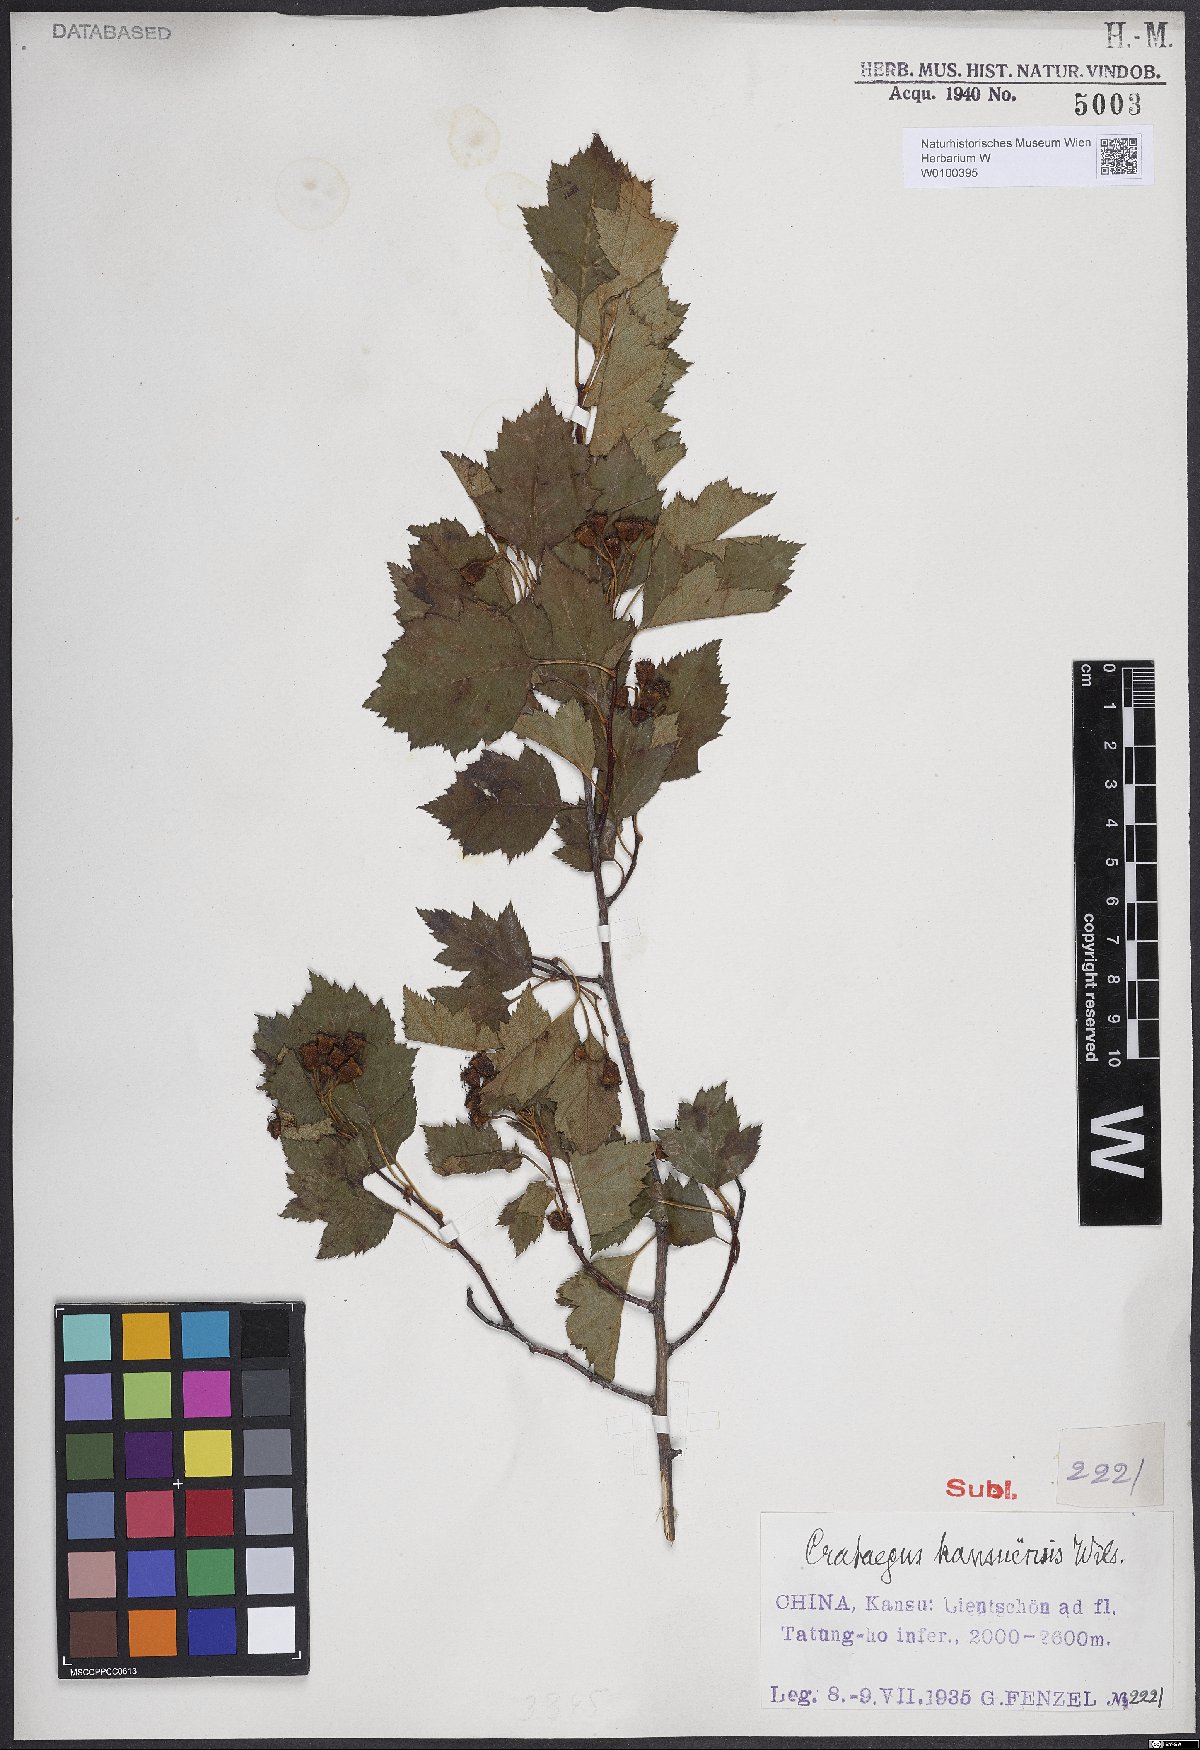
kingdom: Plantae
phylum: Tracheophyta
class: Magnoliopsida
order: Rosales
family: Rosaceae
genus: Crataegus
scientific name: Crataegus kansuensis
